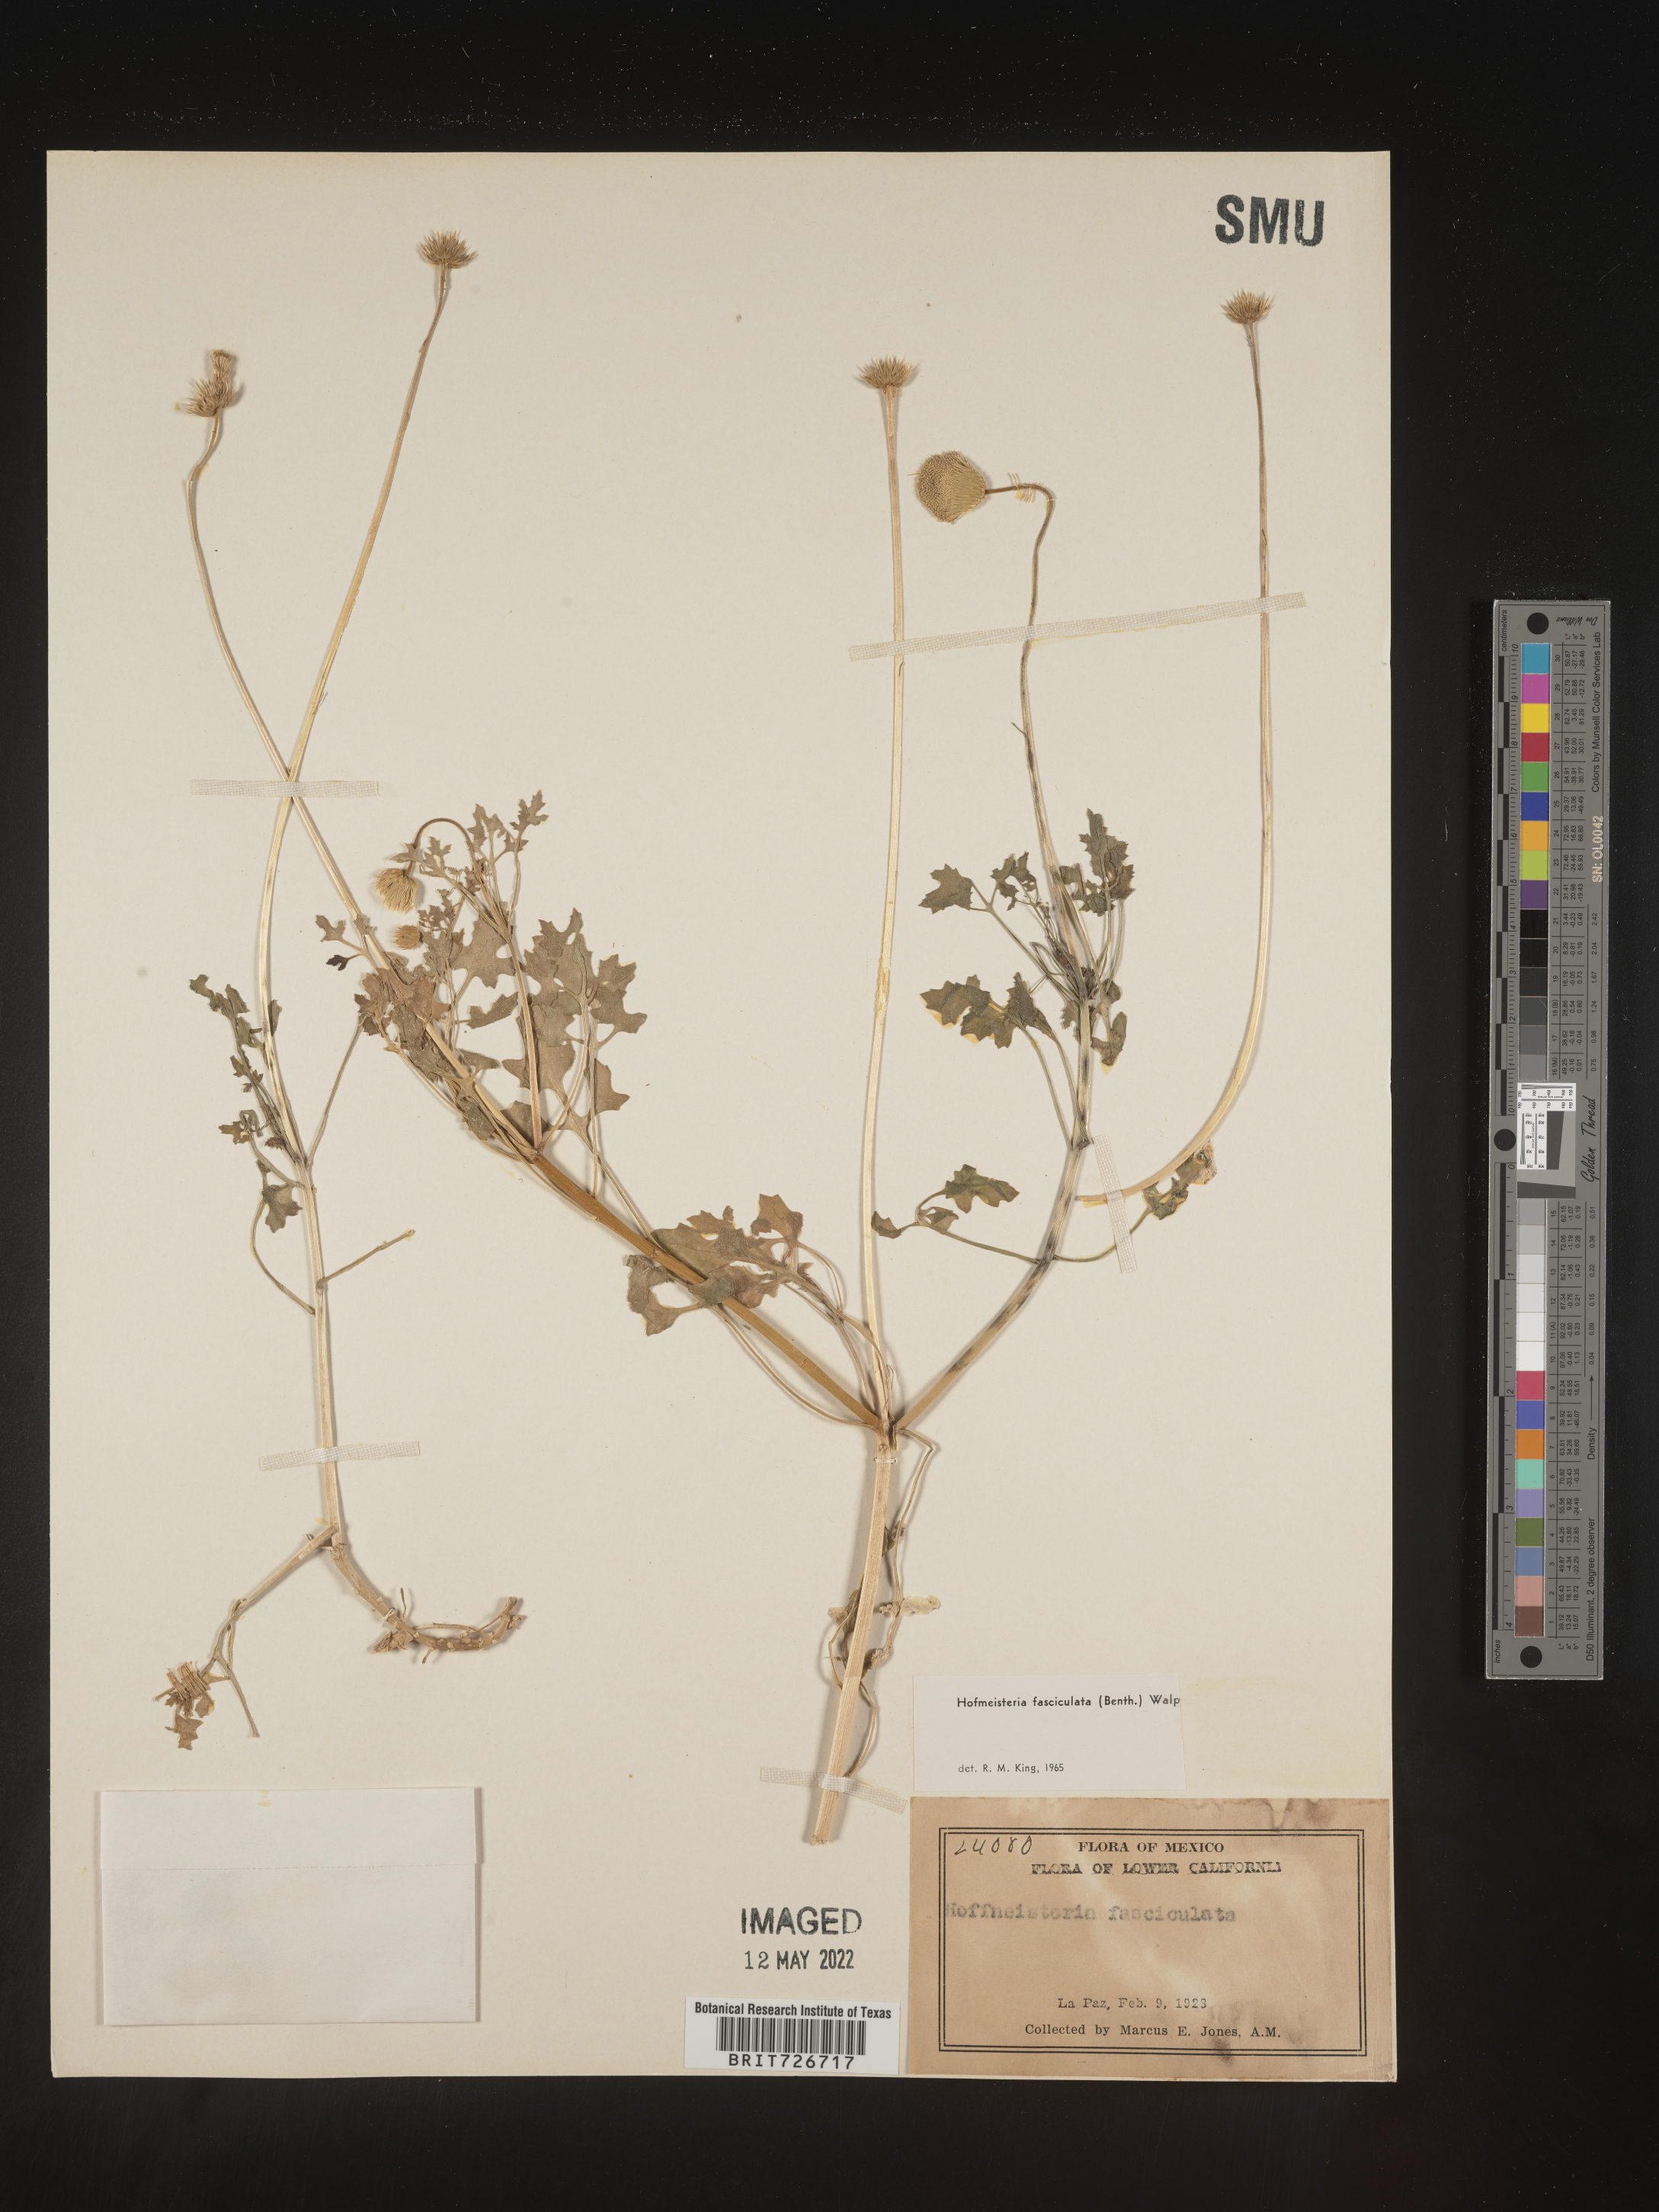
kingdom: Plantae
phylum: Tracheophyta
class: Magnoliopsida
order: Asterales
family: Asteraceae
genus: Hofmeisteria
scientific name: Hofmeisteria
